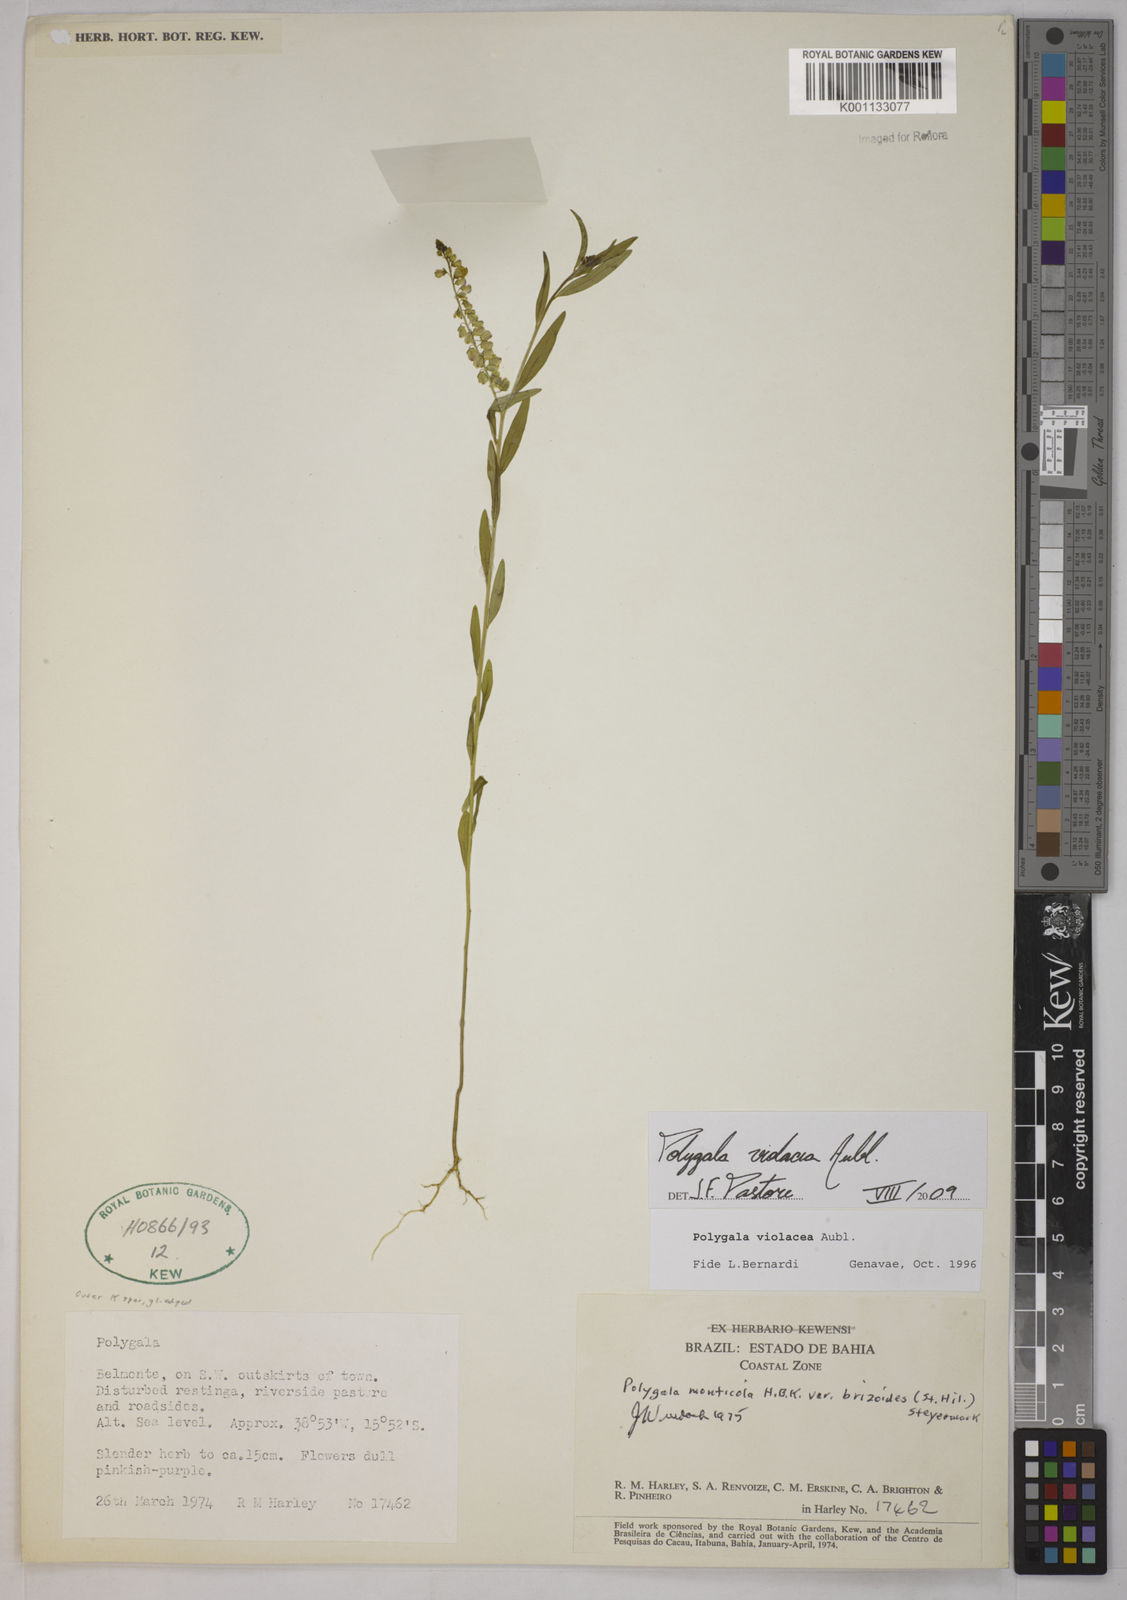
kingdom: Plantae
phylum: Tracheophyta
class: Magnoliopsida
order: Fabales
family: Polygalaceae
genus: Polygala
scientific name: Polygala
